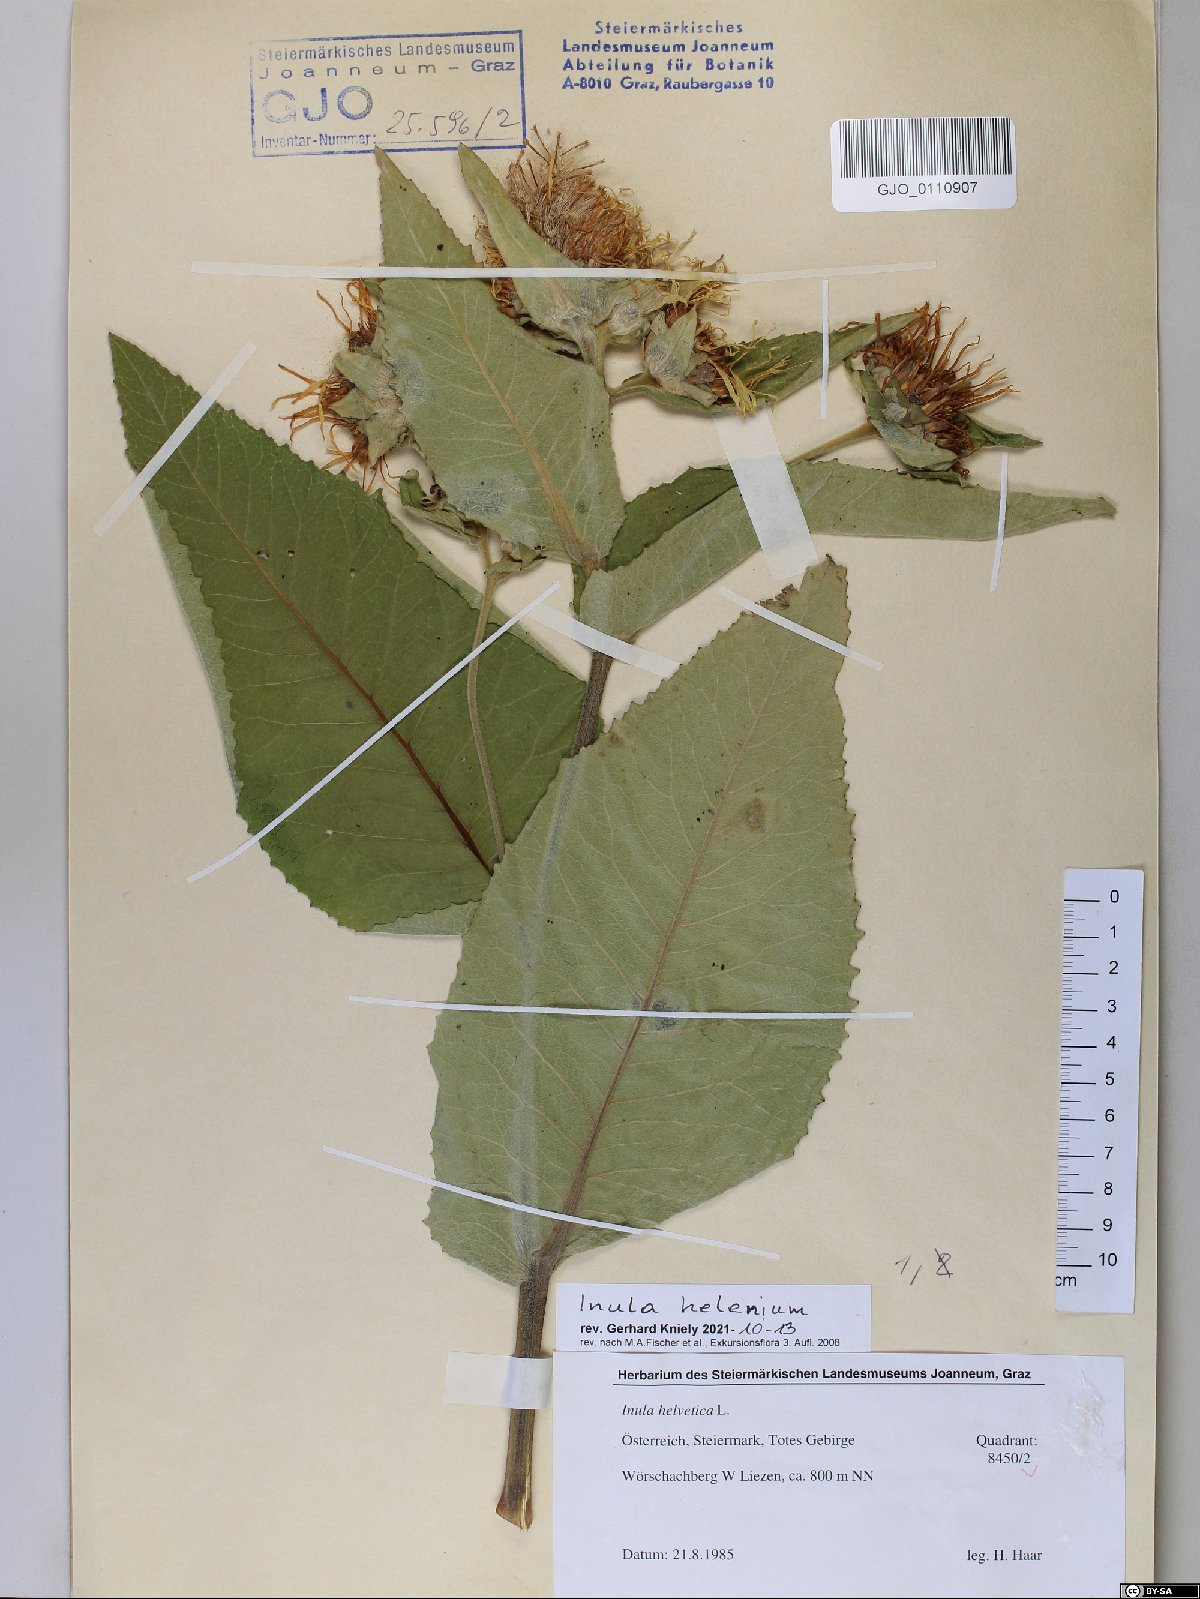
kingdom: Plantae
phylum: Tracheophyta
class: Magnoliopsida
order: Asterales
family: Asteraceae
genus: Inula
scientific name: Inula helenium
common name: Elecampane
